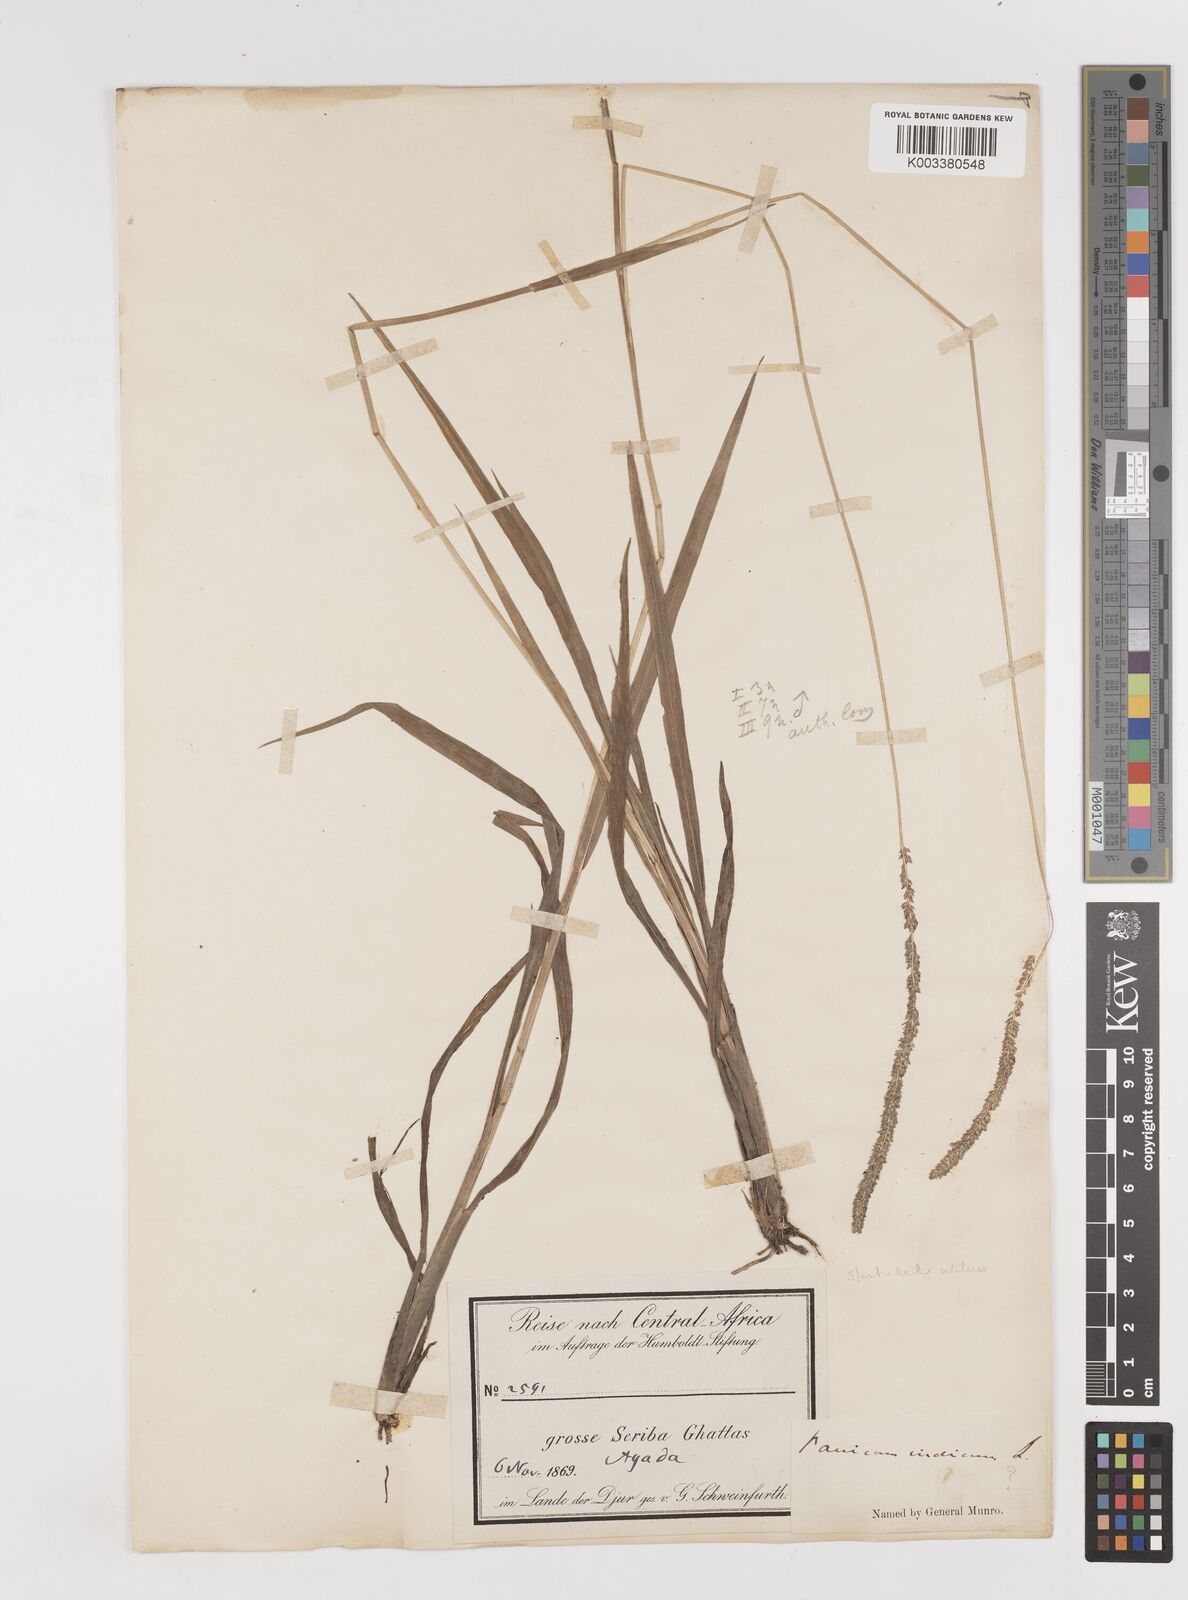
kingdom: Plantae
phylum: Tracheophyta
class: Liliopsida
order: Poales
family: Poaceae
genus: Sacciolepis
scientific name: Sacciolepis typhura
